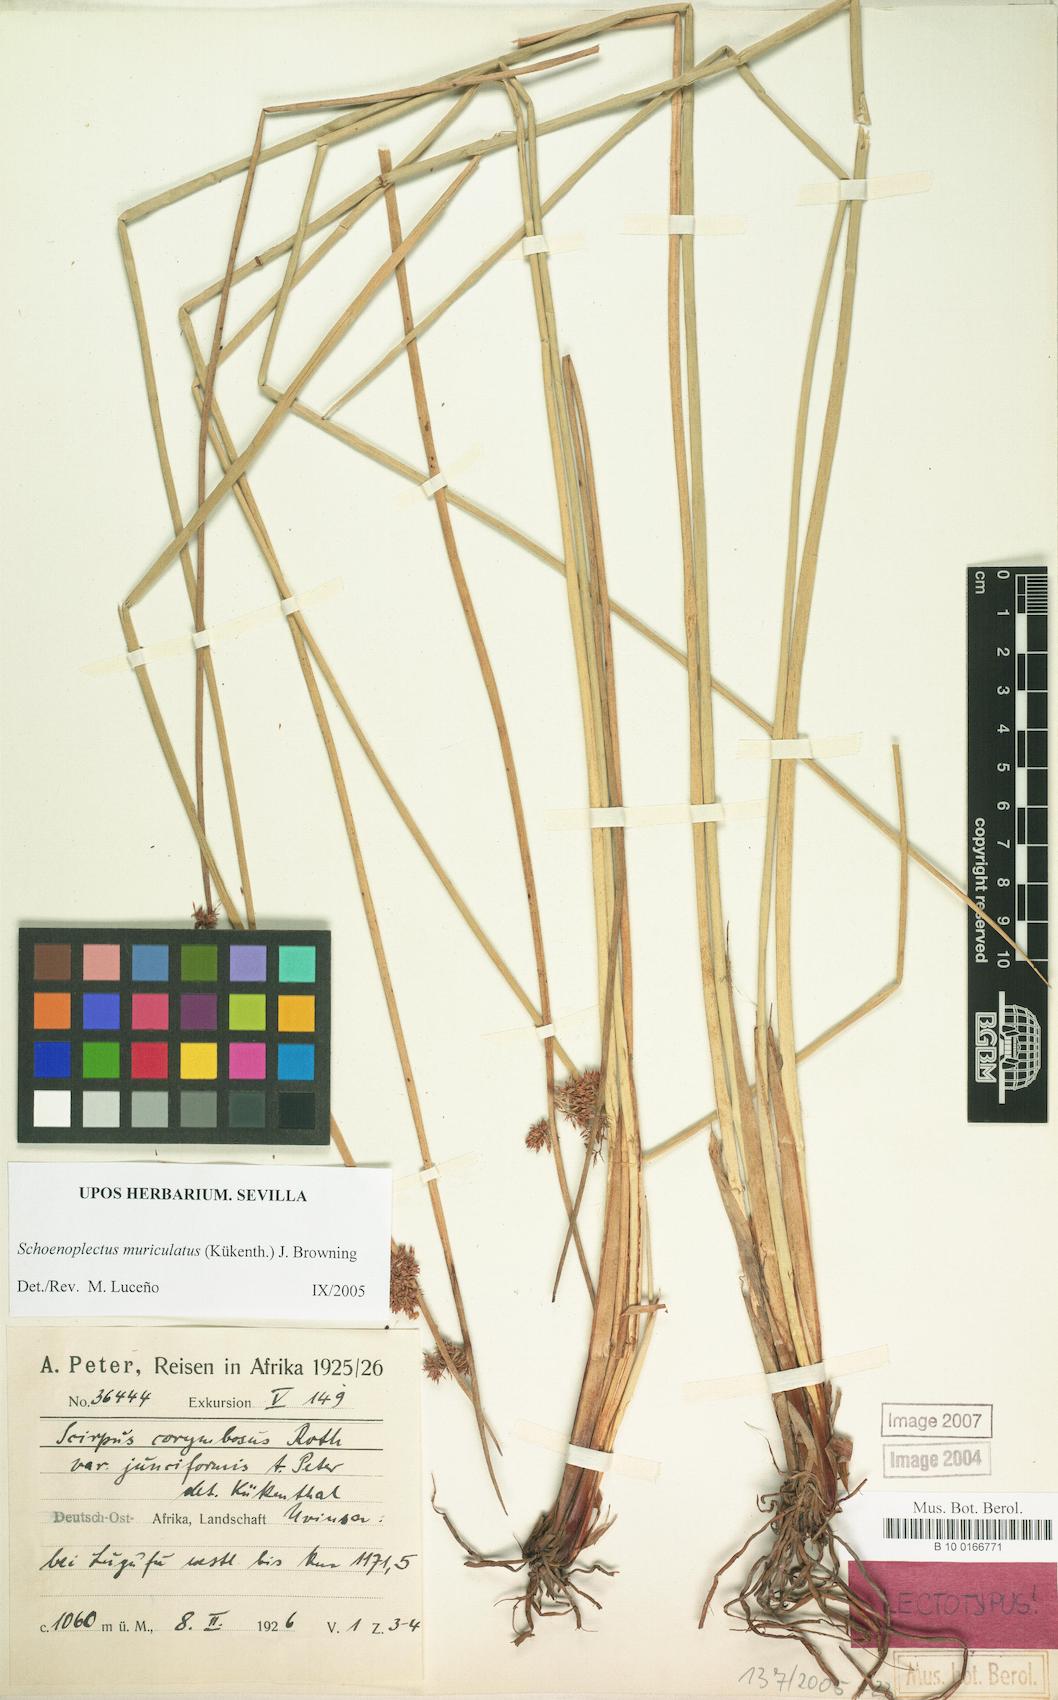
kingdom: Plantae
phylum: Tracheophyta
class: Liliopsida
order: Poales
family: Cyperaceae
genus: Schoenoplectiella
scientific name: Schoenoplectiella muriculata
